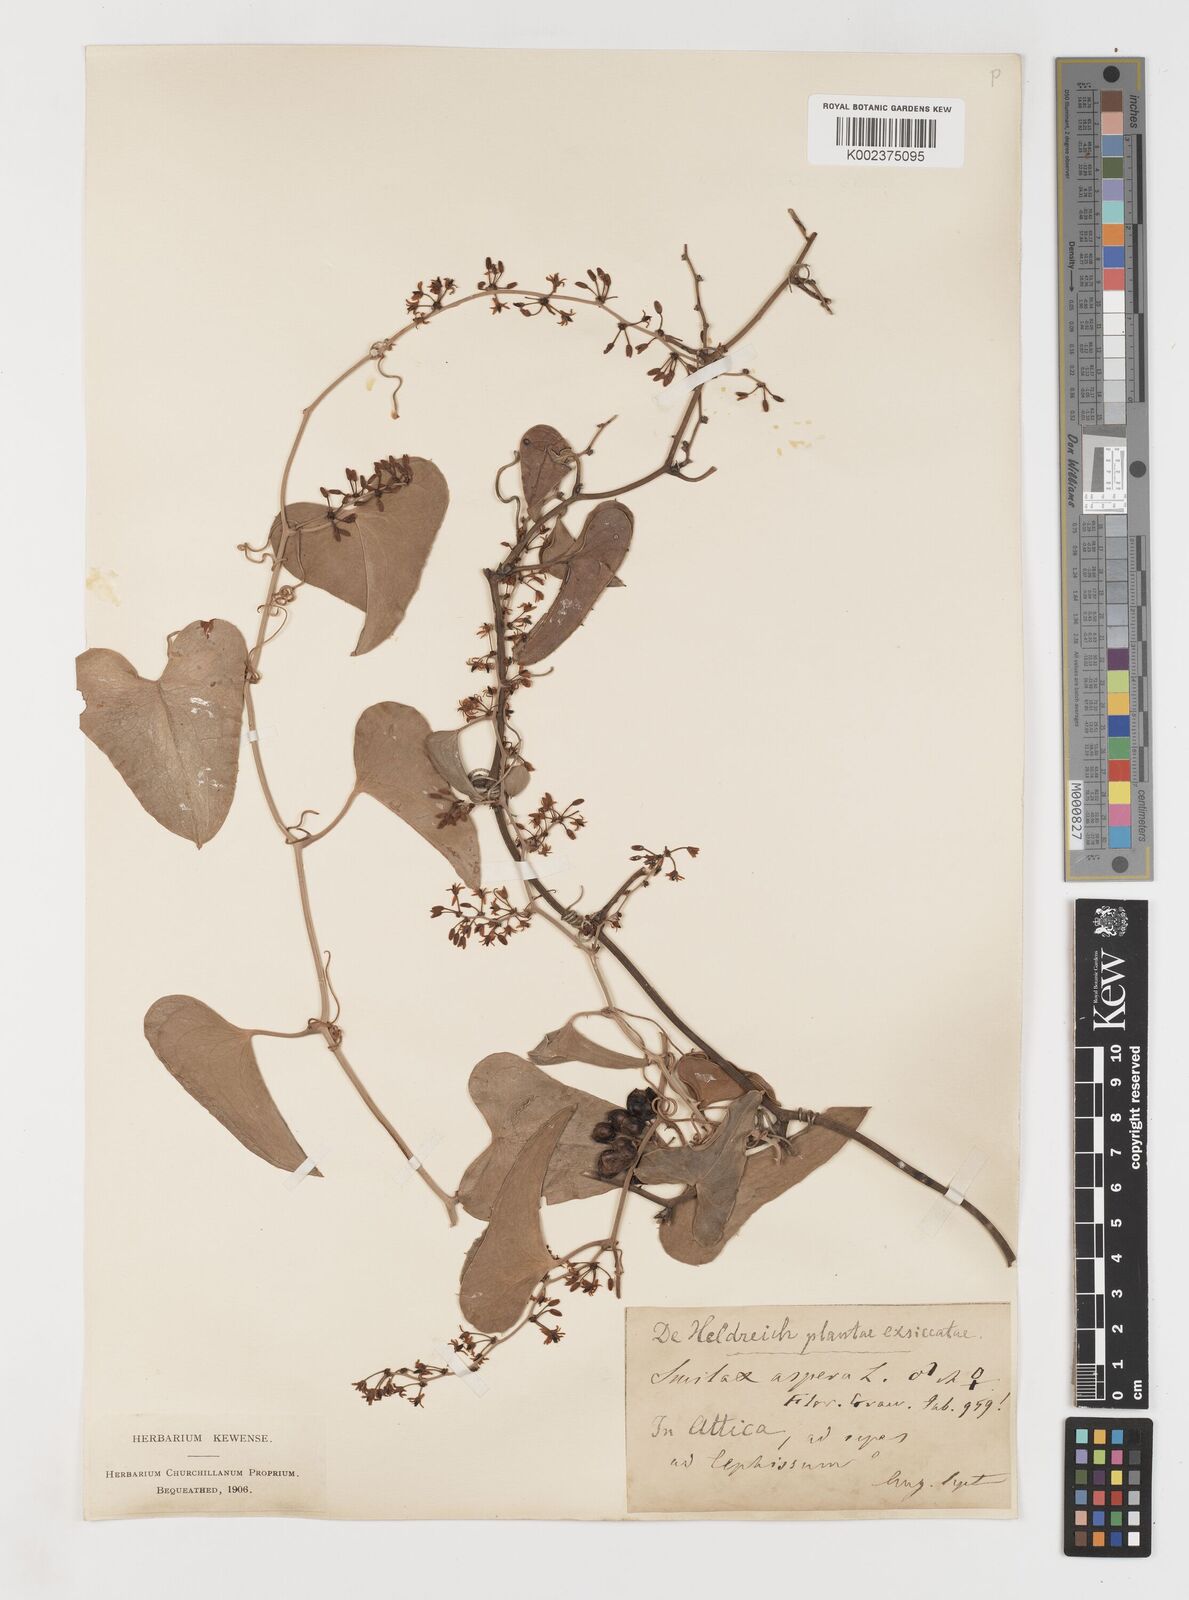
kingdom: Plantae
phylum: Tracheophyta
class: Liliopsida
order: Liliales
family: Smilacaceae
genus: Smilax
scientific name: Smilax aspera
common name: Common smilax
